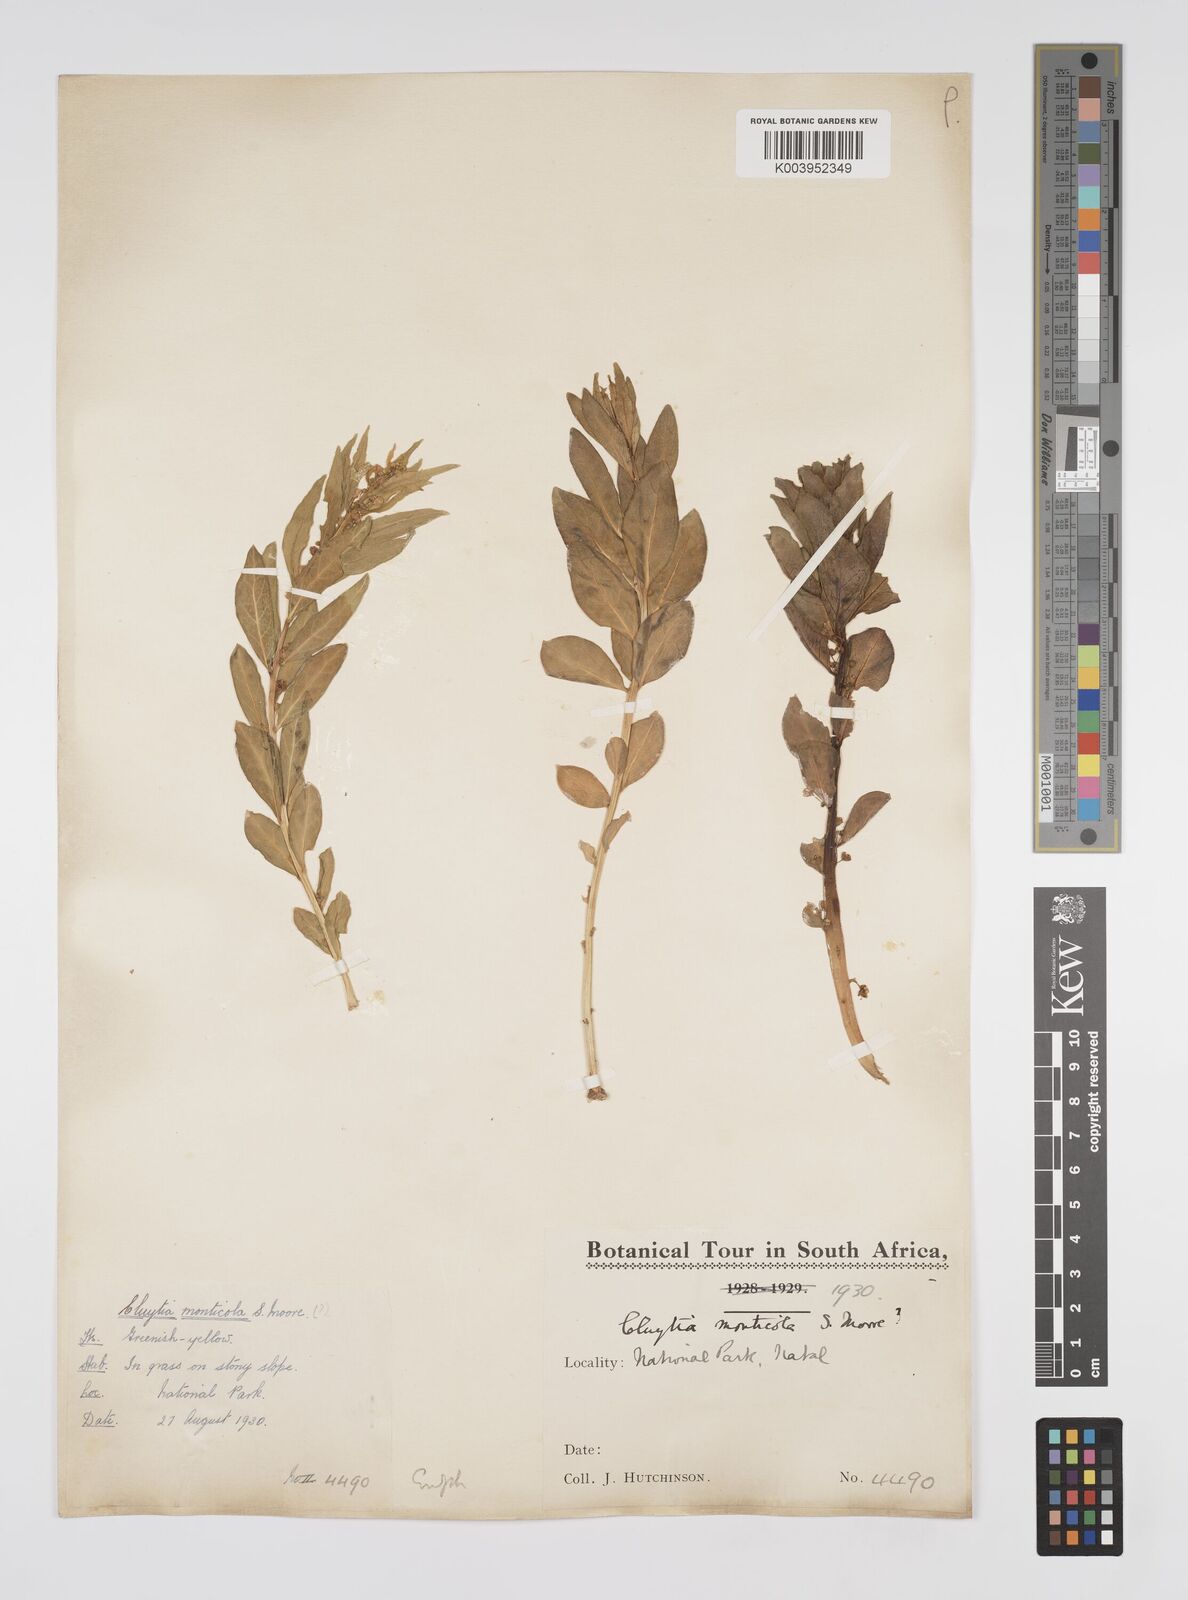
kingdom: Plantae
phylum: Tracheophyta
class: Magnoliopsida
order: Malpighiales
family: Peraceae
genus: Clutia
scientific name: Clutia monticola
